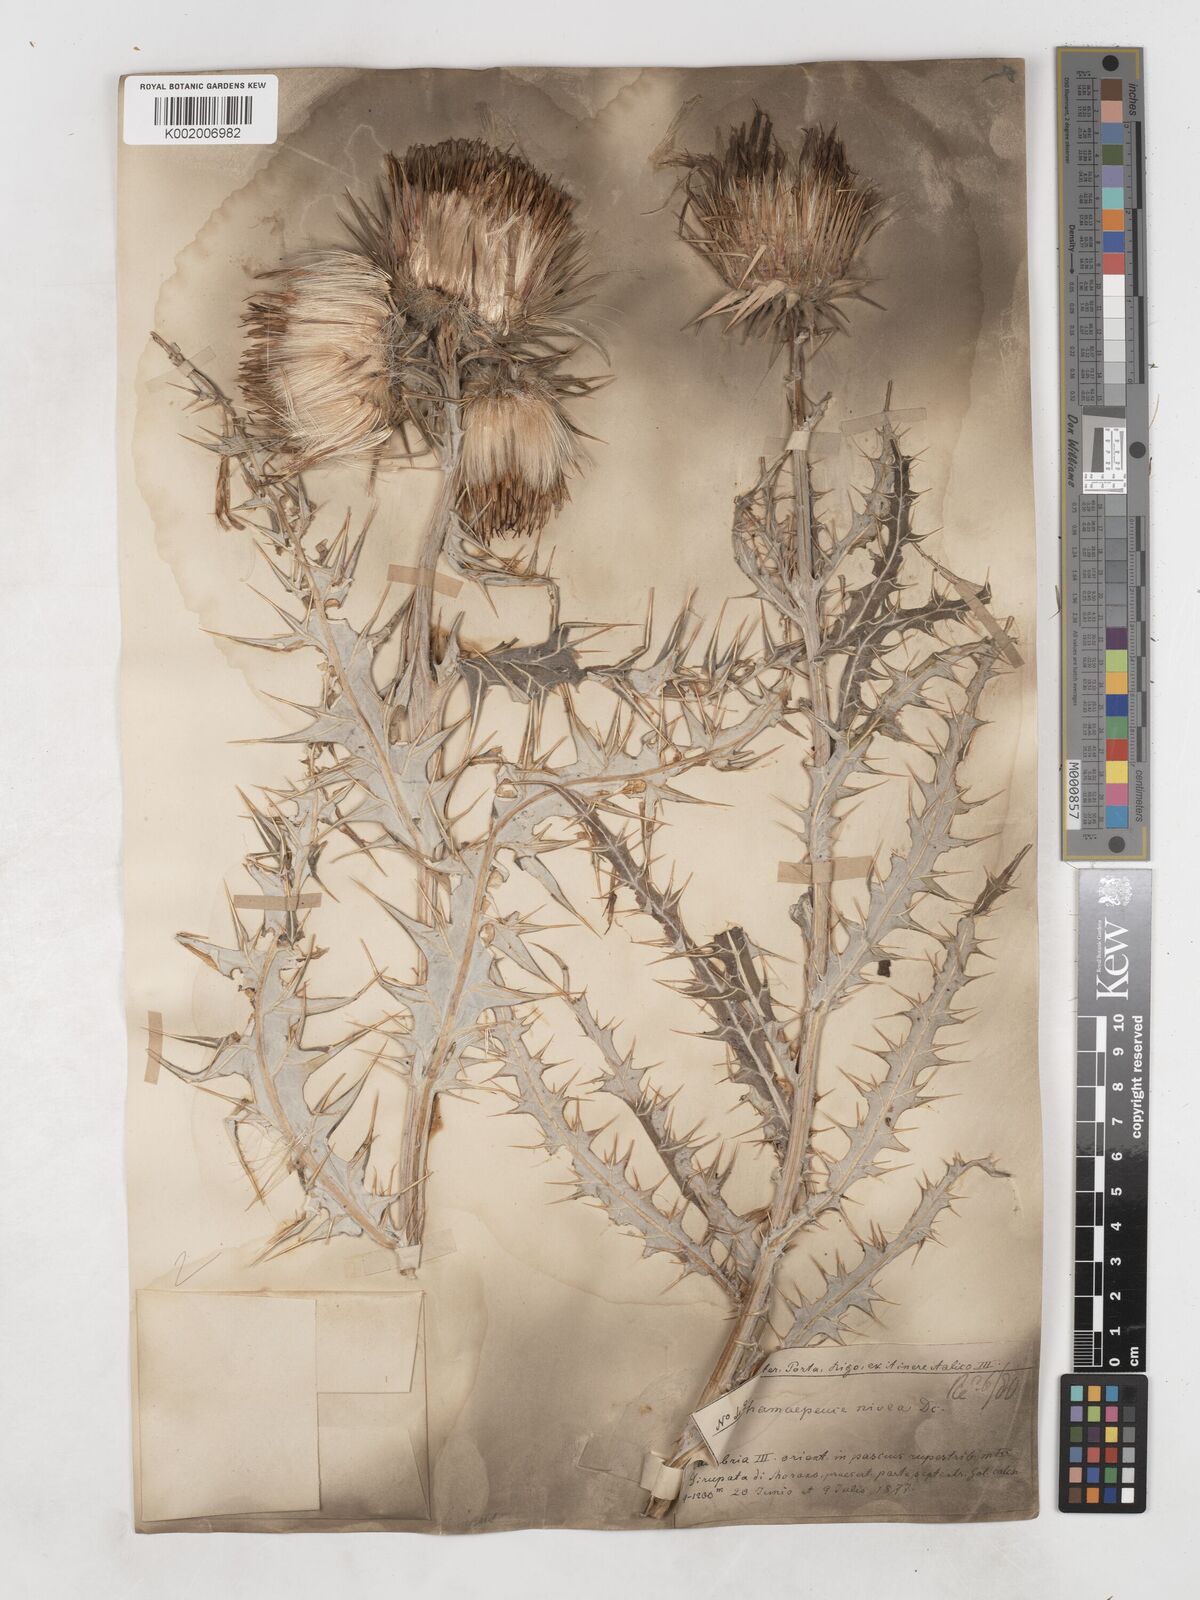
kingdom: Plantae
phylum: Tracheophyta
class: Magnoliopsida
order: Asterales
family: Asteraceae
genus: Ptilostemon
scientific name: Ptilostemon niveus
